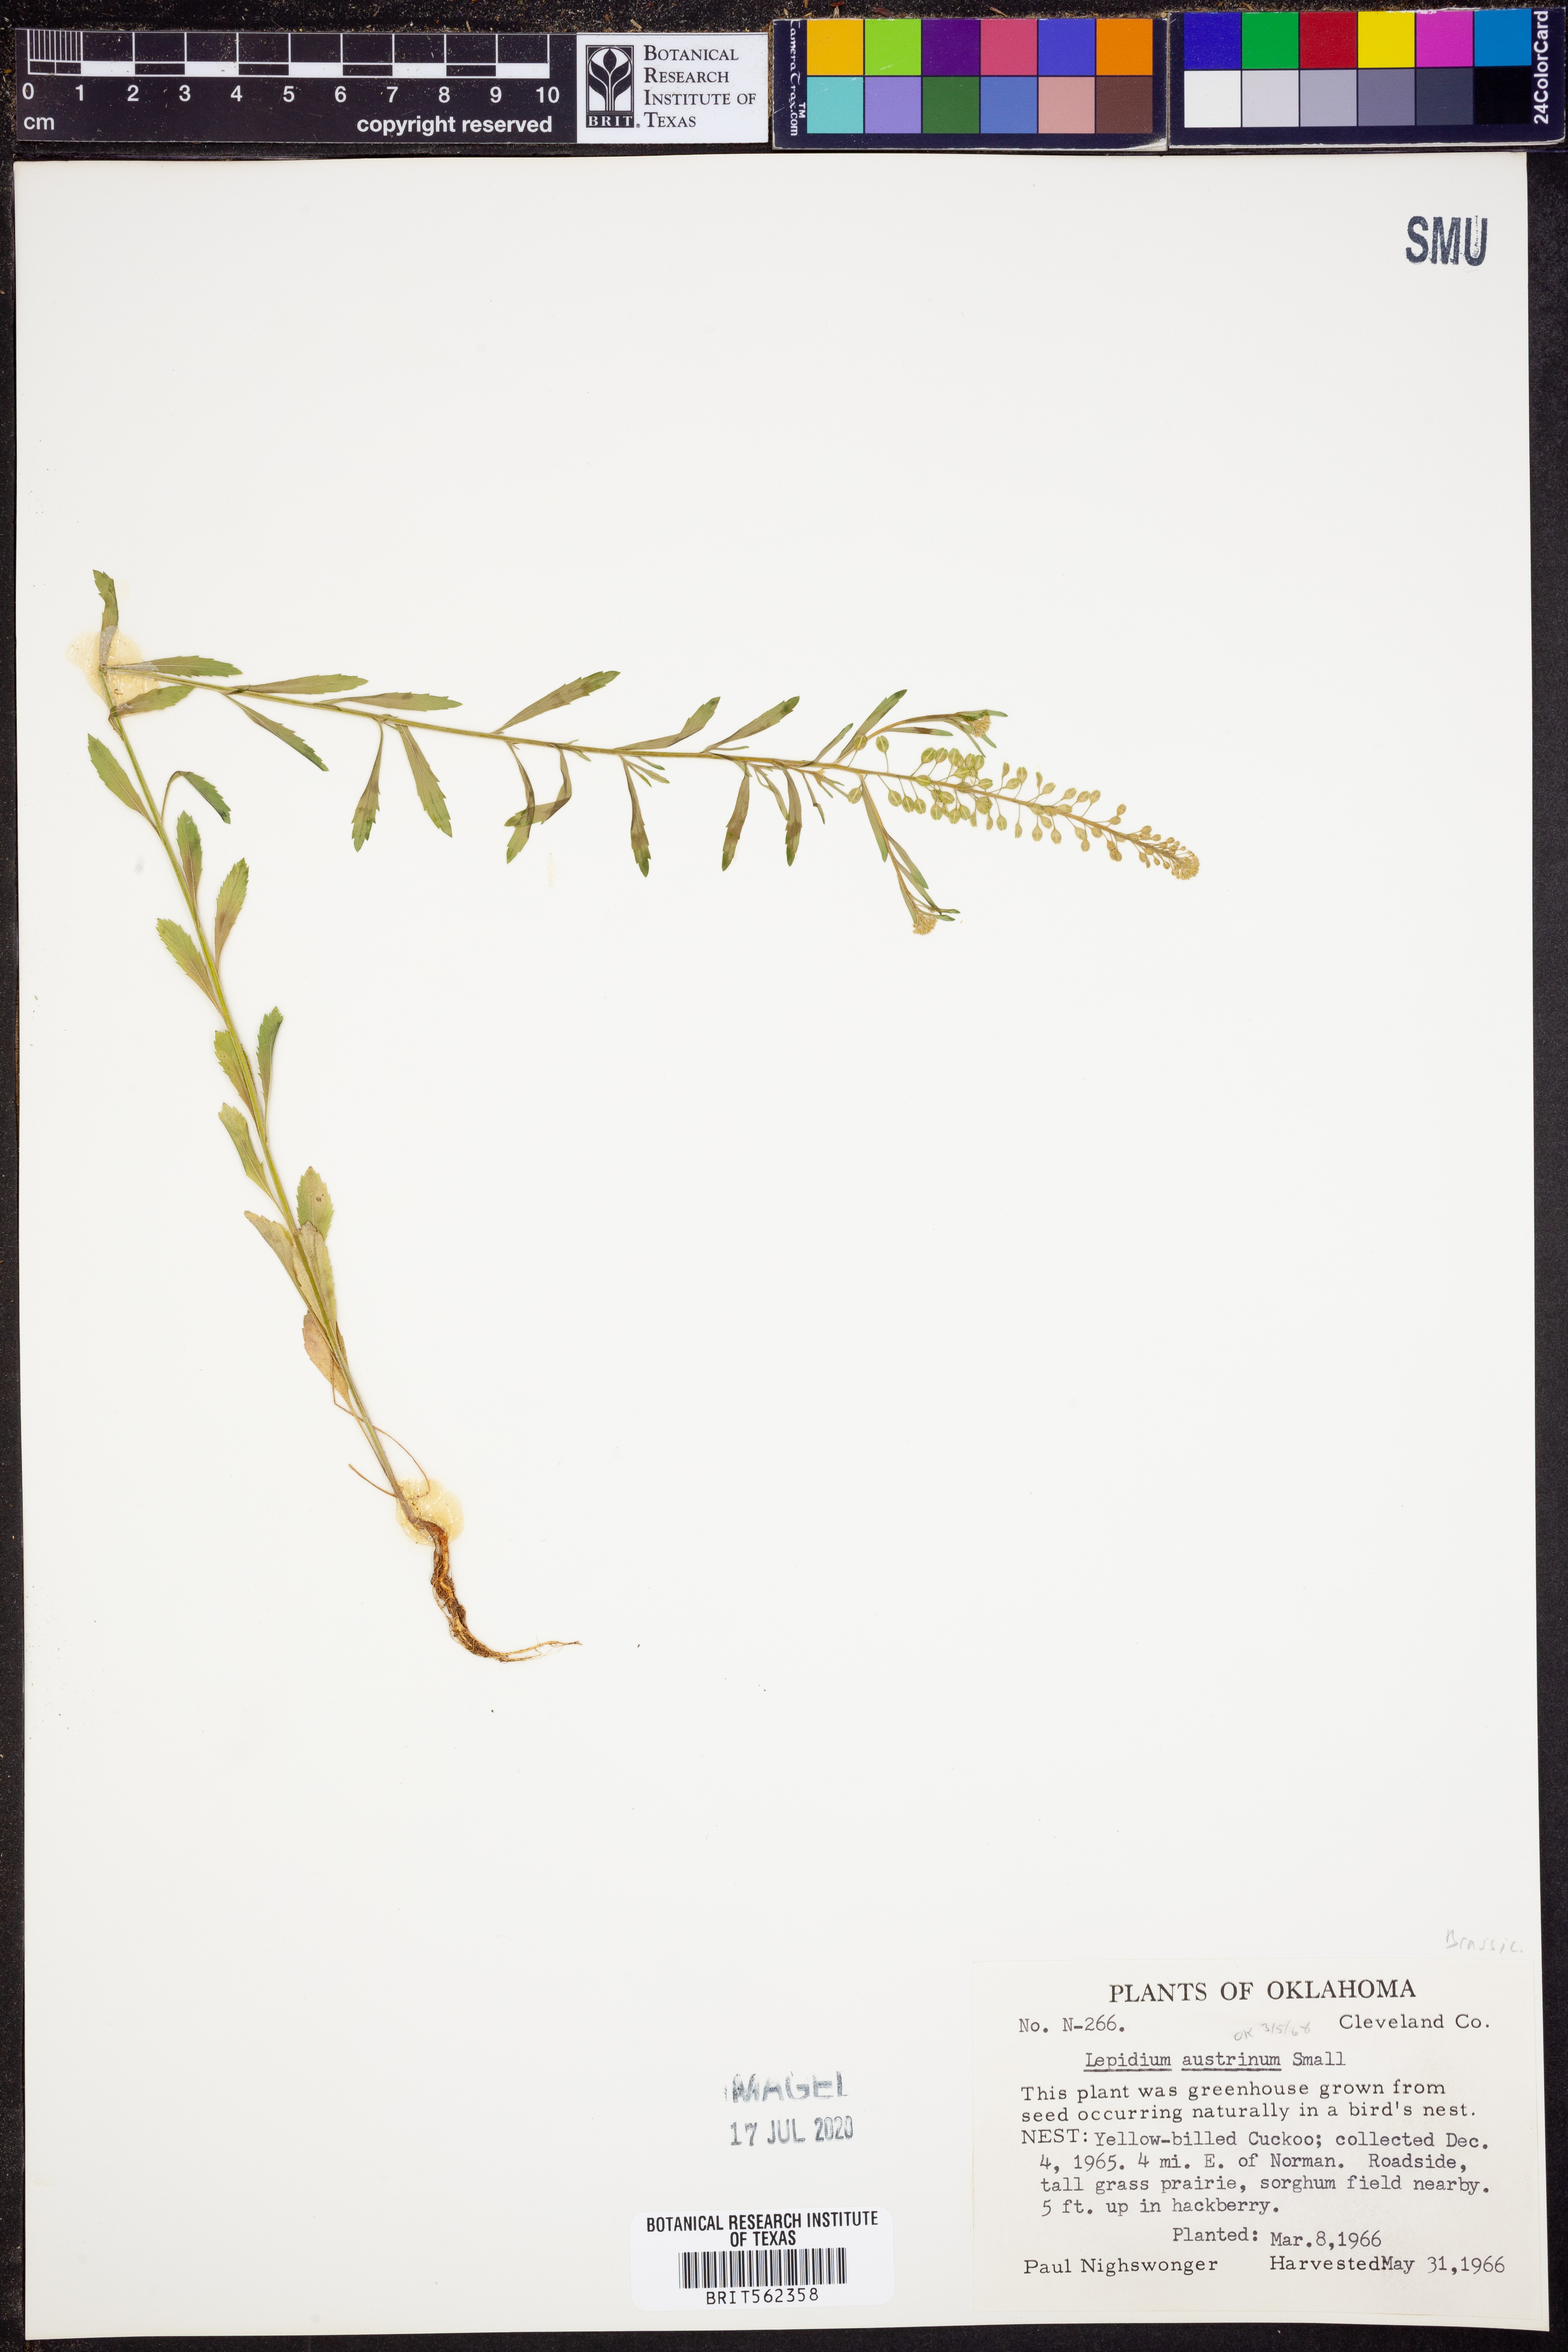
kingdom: Plantae
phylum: Tracheophyta
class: Magnoliopsida
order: Brassicales
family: Brassicaceae
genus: Lepidium
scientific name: Lepidium austrinum
